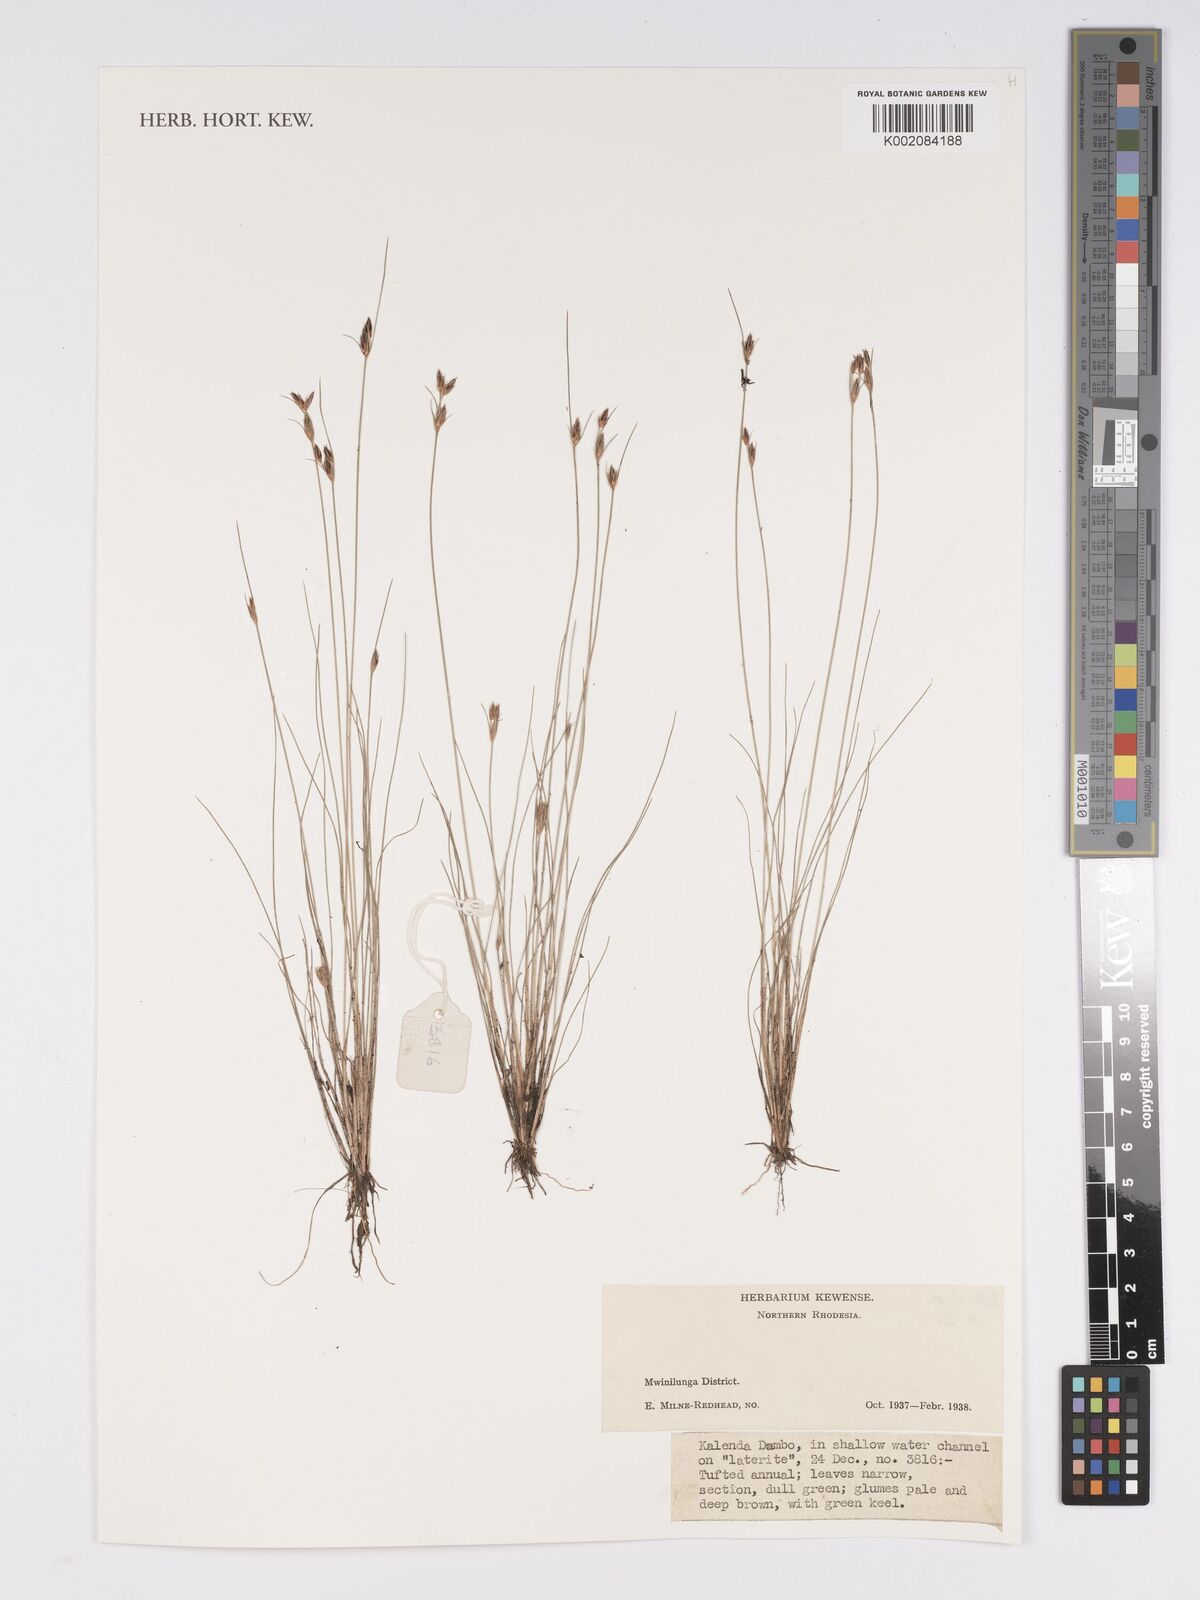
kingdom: Plantae
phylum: Tracheophyta
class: Liliopsida
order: Poales
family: Cyperaceae
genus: Bulbostylis
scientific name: Bulbostylis
